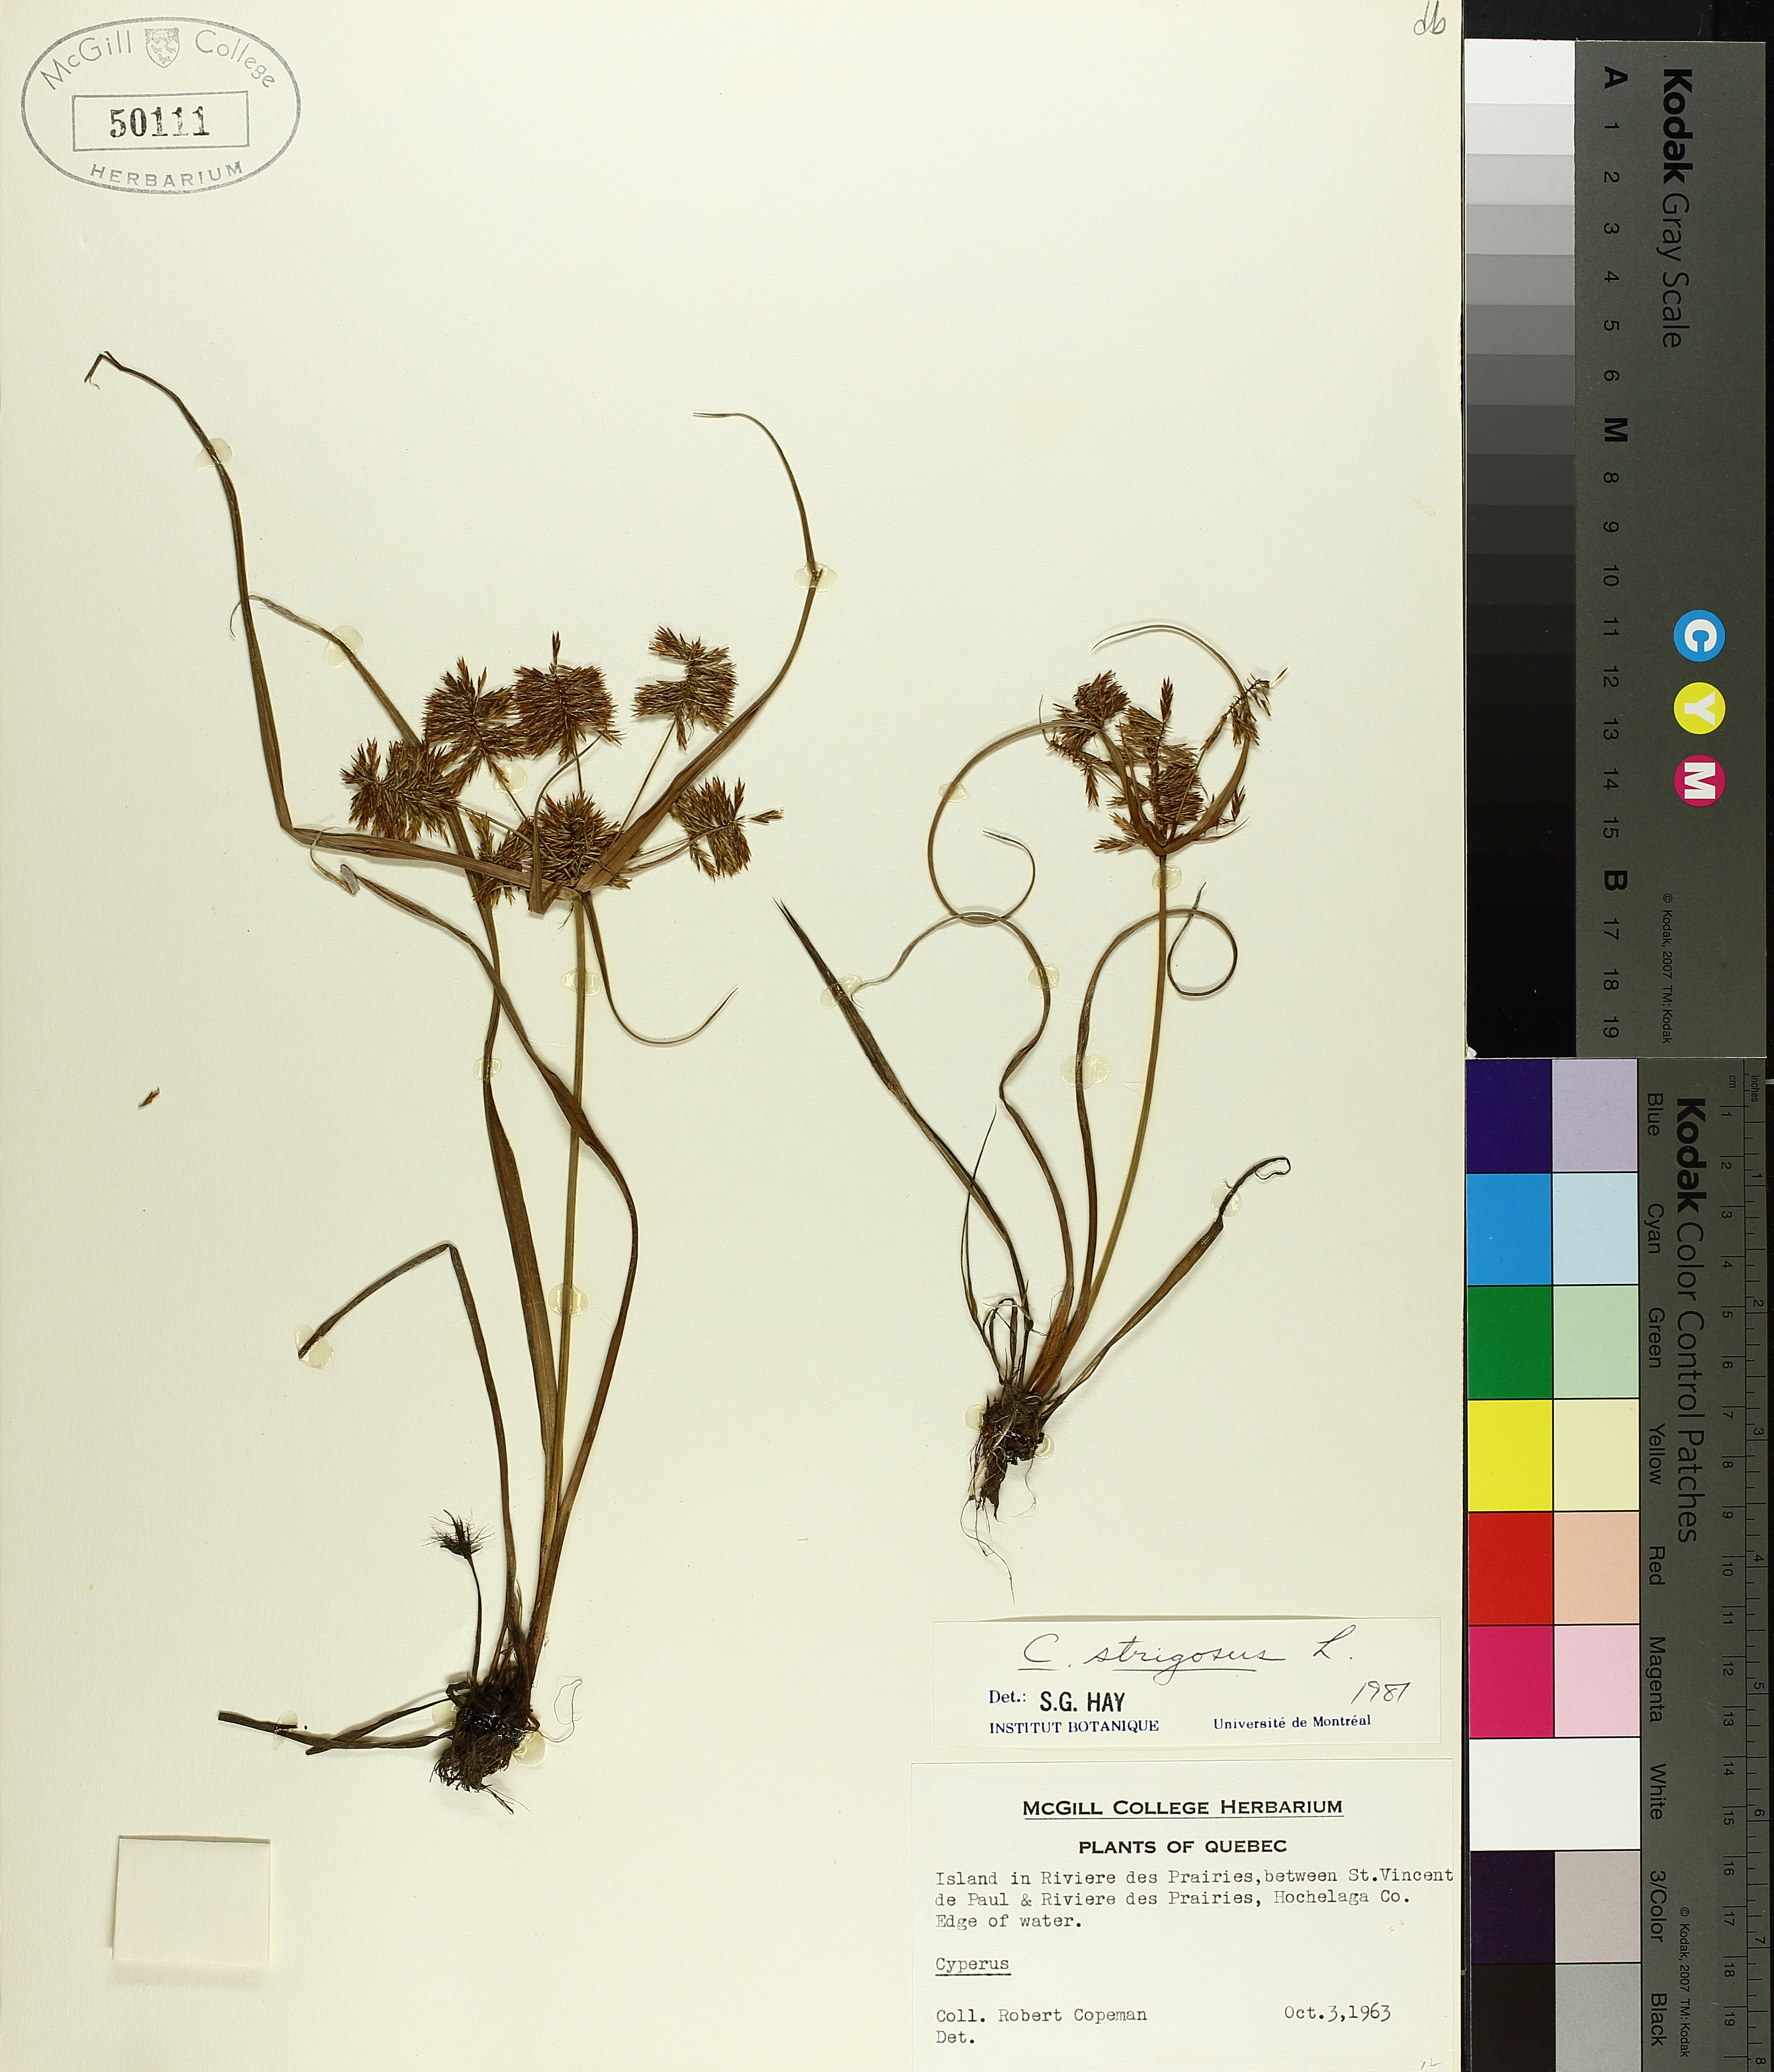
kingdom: Plantae
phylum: Tracheophyta
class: Liliopsida
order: Poales
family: Cyperaceae
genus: Cyperus
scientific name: Cyperus strigosus
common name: False nutsedge
